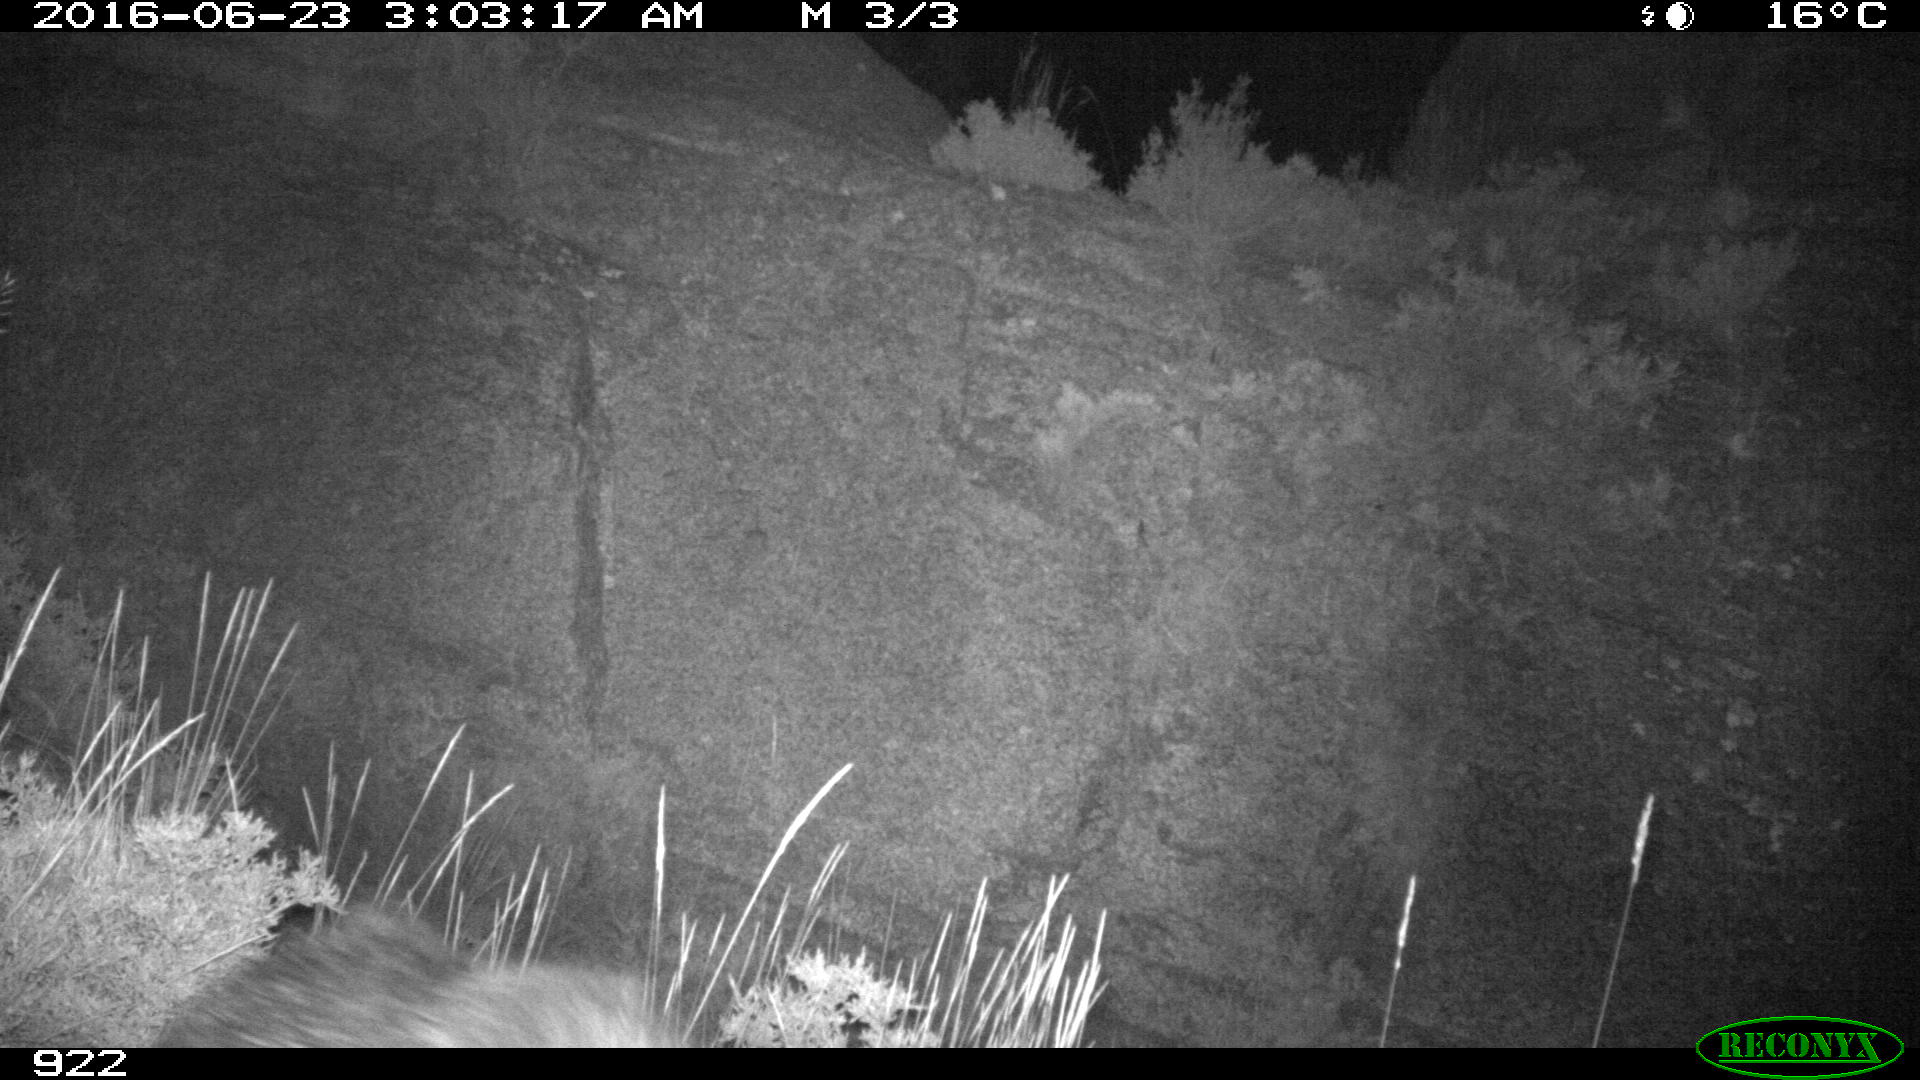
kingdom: Animalia
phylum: Chordata
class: Mammalia
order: Artiodactyla
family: Suidae
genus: Sus
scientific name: Sus scrofa
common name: Wild boar
